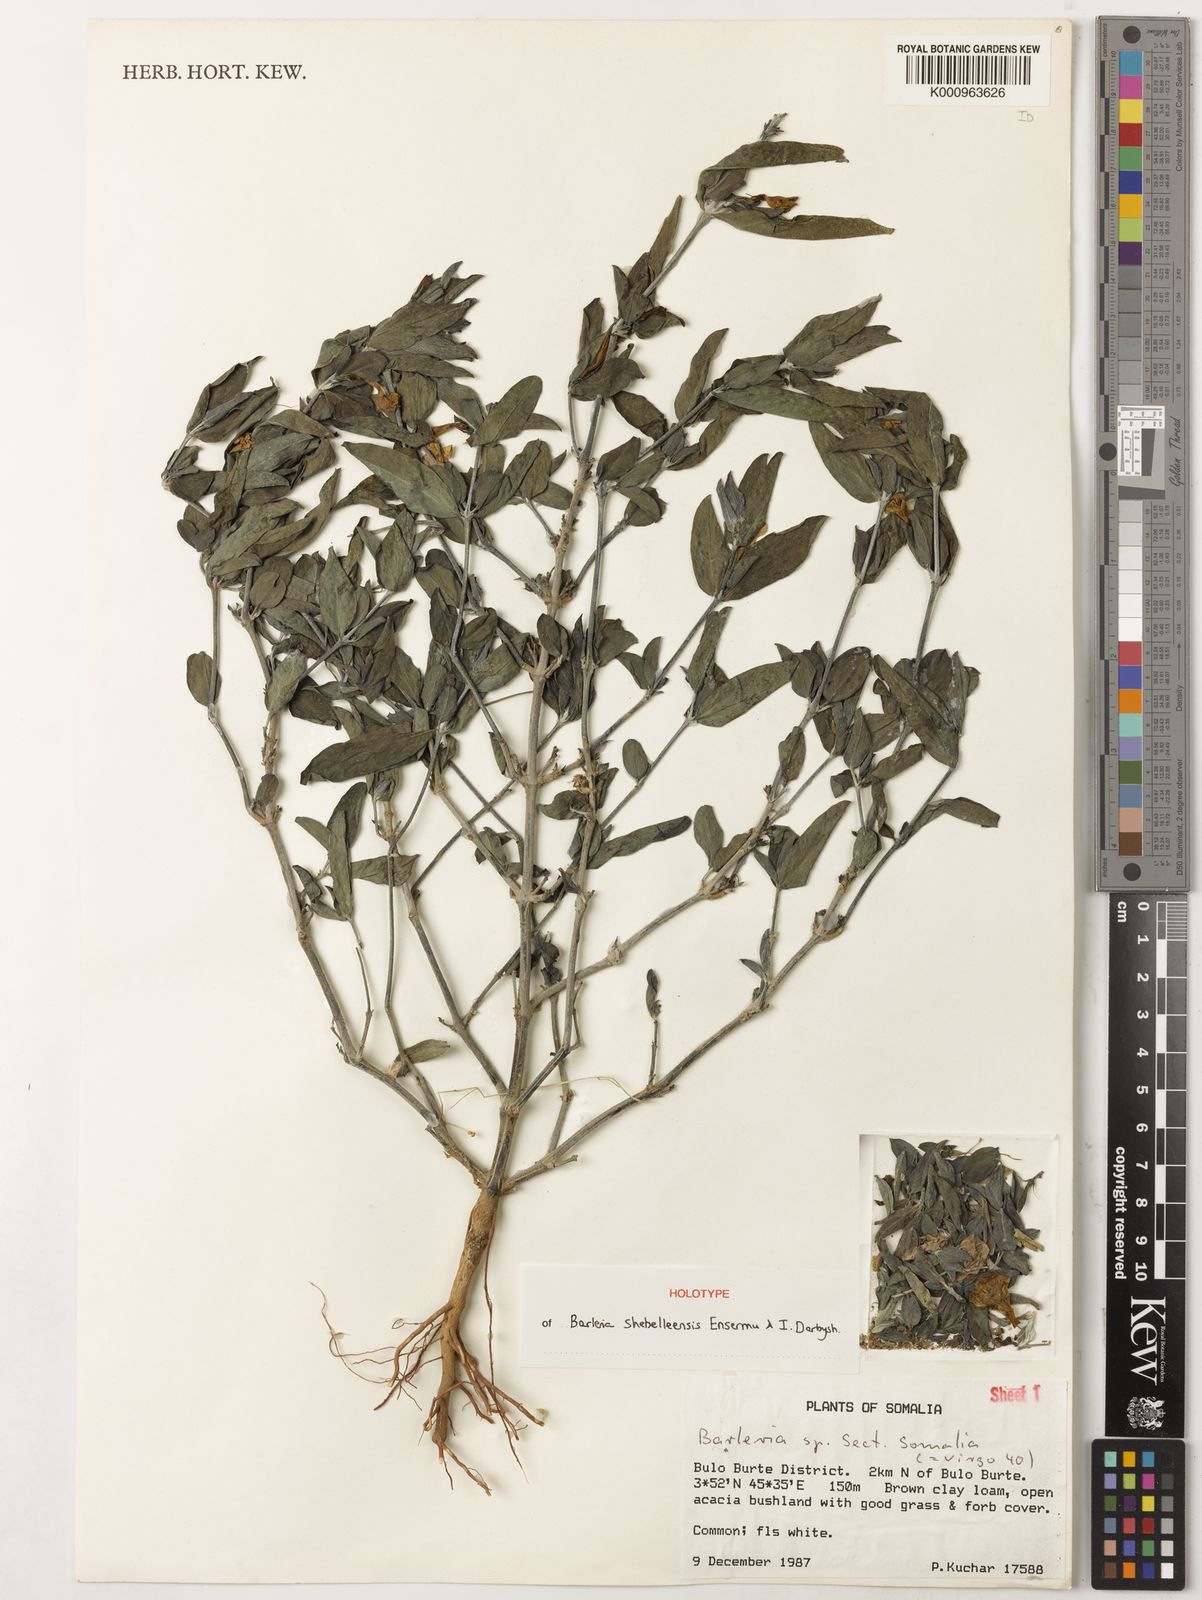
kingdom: Plantae
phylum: Tracheophyta
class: Magnoliopsida
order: Lamiales
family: Acanthaceae
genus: Barleria
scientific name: Barleria shebelleensis
